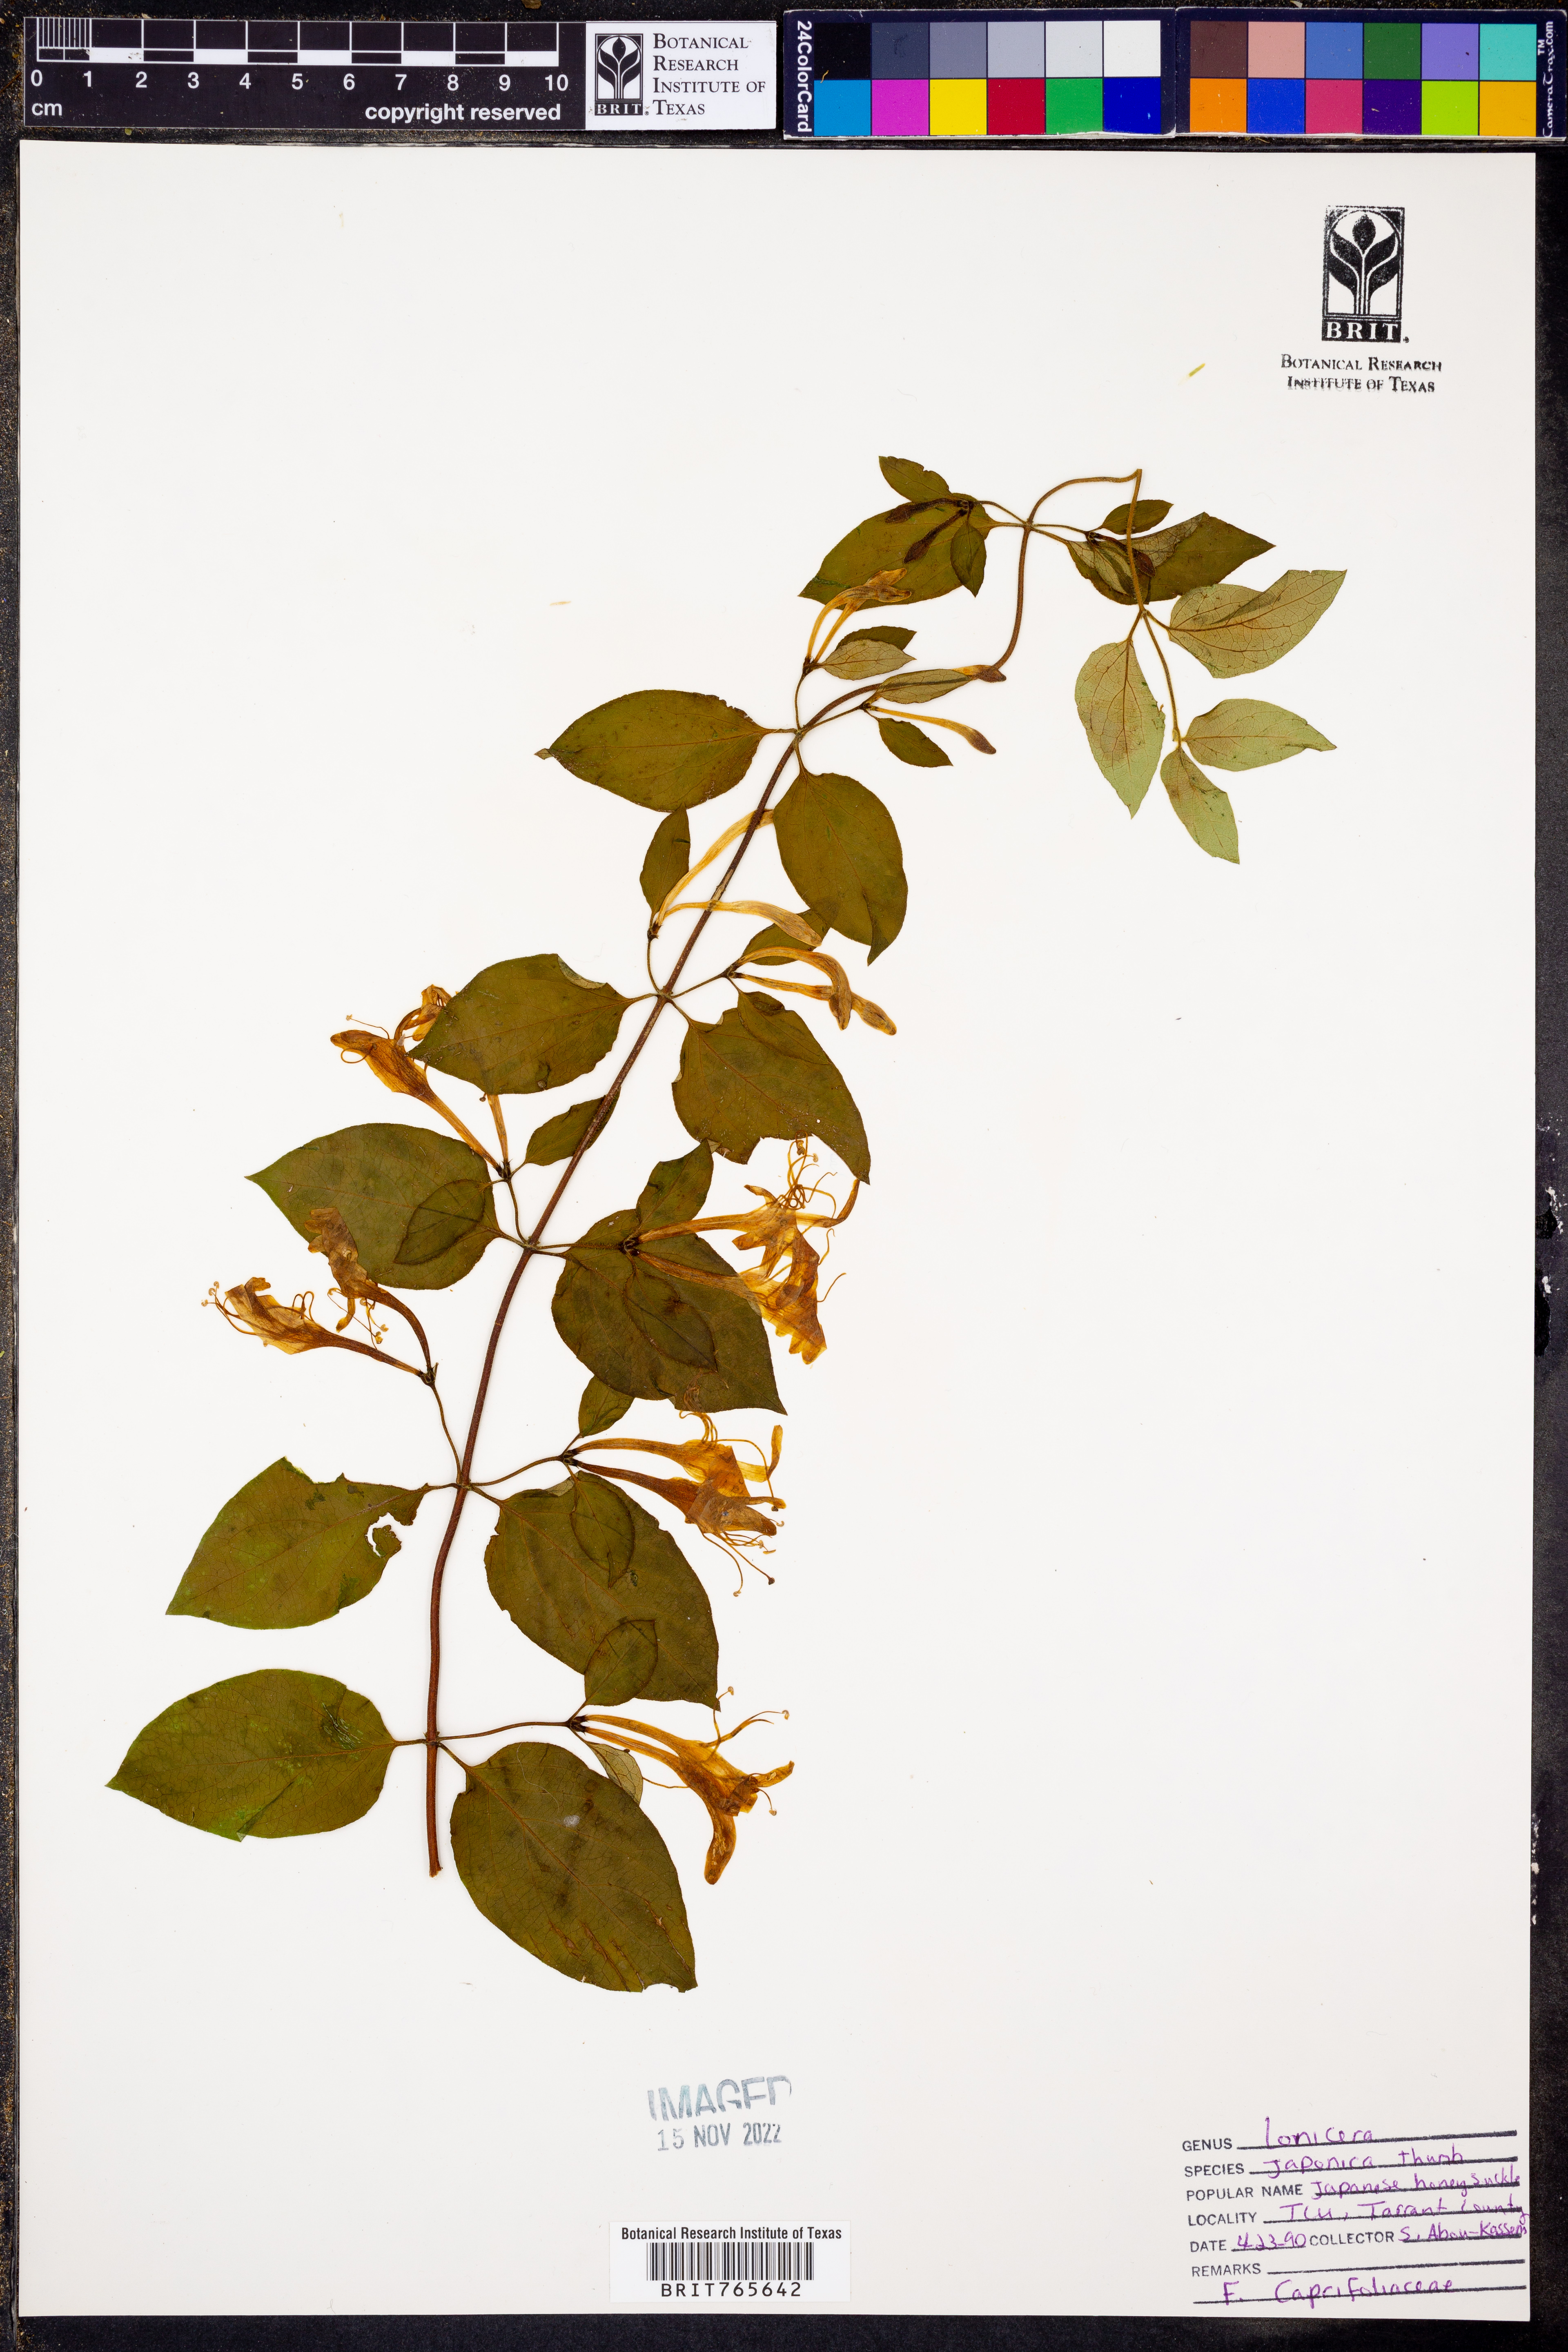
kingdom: Plantae
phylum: Tracheophyta
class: Magnoliopsida
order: Dipsacales
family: Caprifoliaceae
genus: Lonicera
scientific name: Lonicera japonica
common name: Japanese honeysuckle
